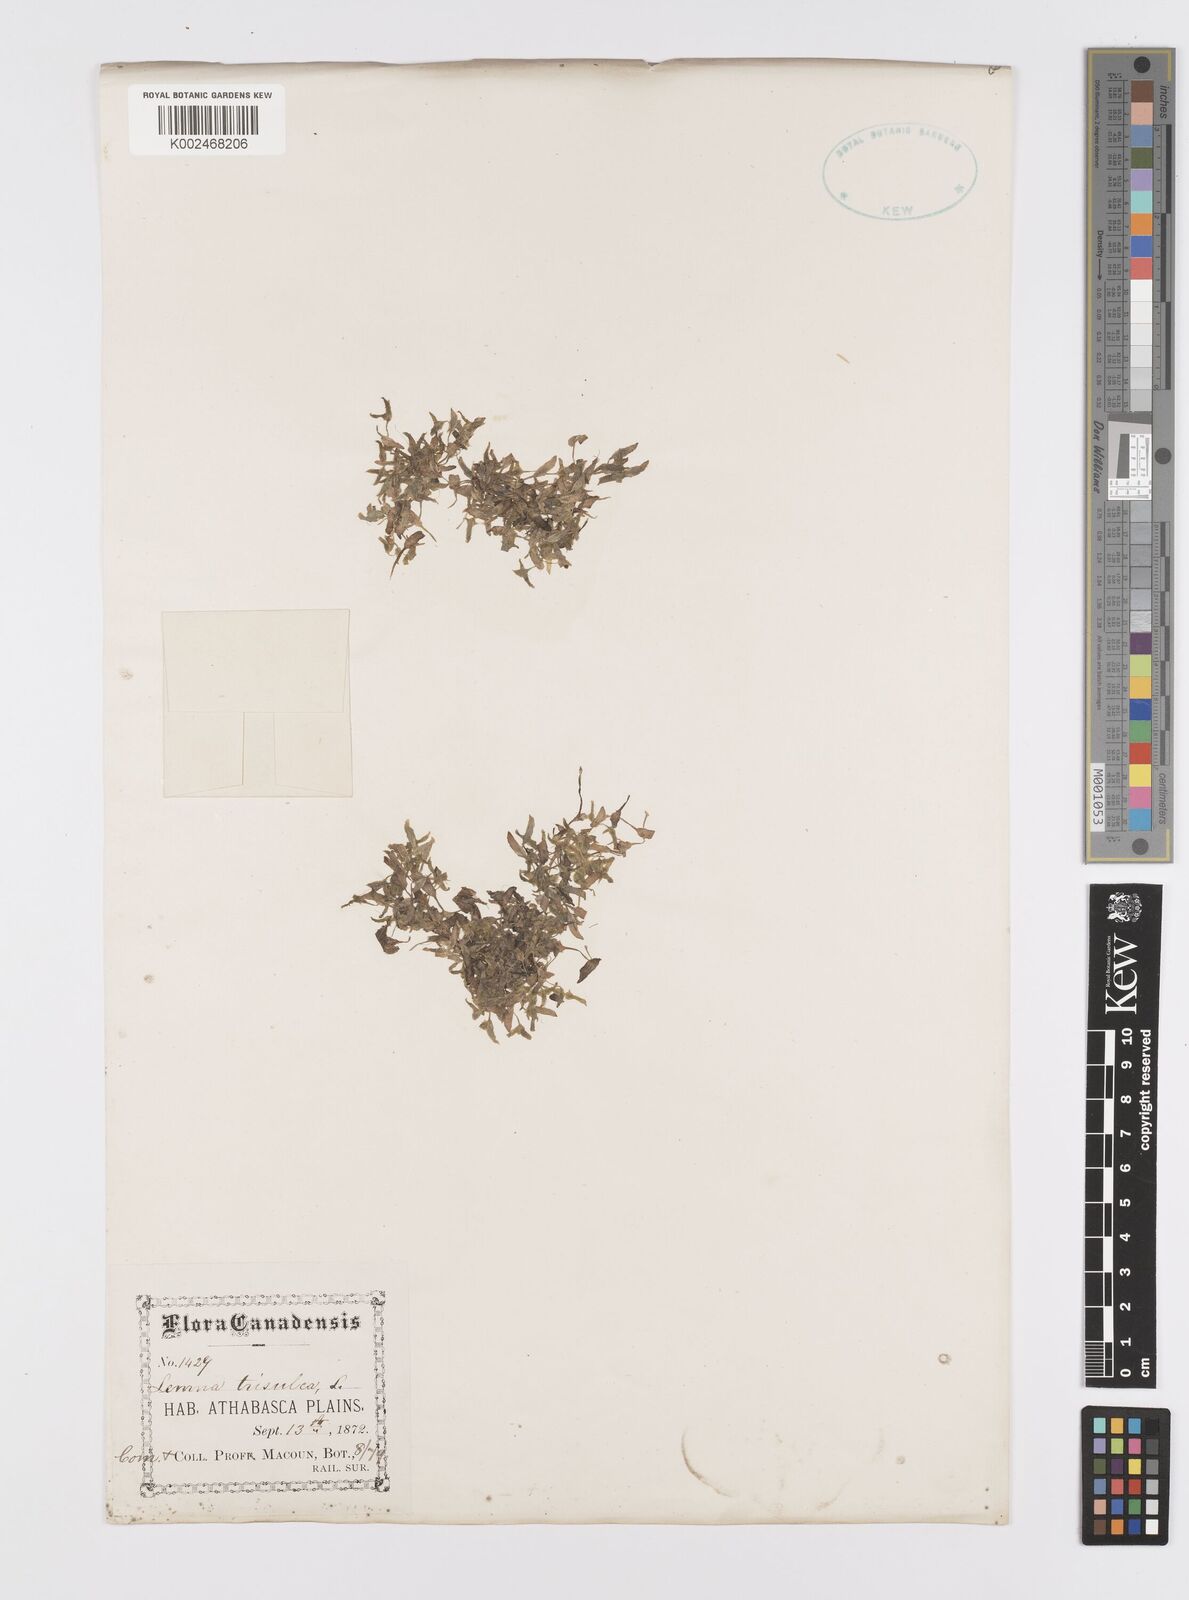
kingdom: Plantae
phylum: Tracheophyta
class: Liliopsida
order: Alismatales
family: Araceae
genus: Lemna
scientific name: Lemna trisulca
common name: Ivy-leaved duckweed
